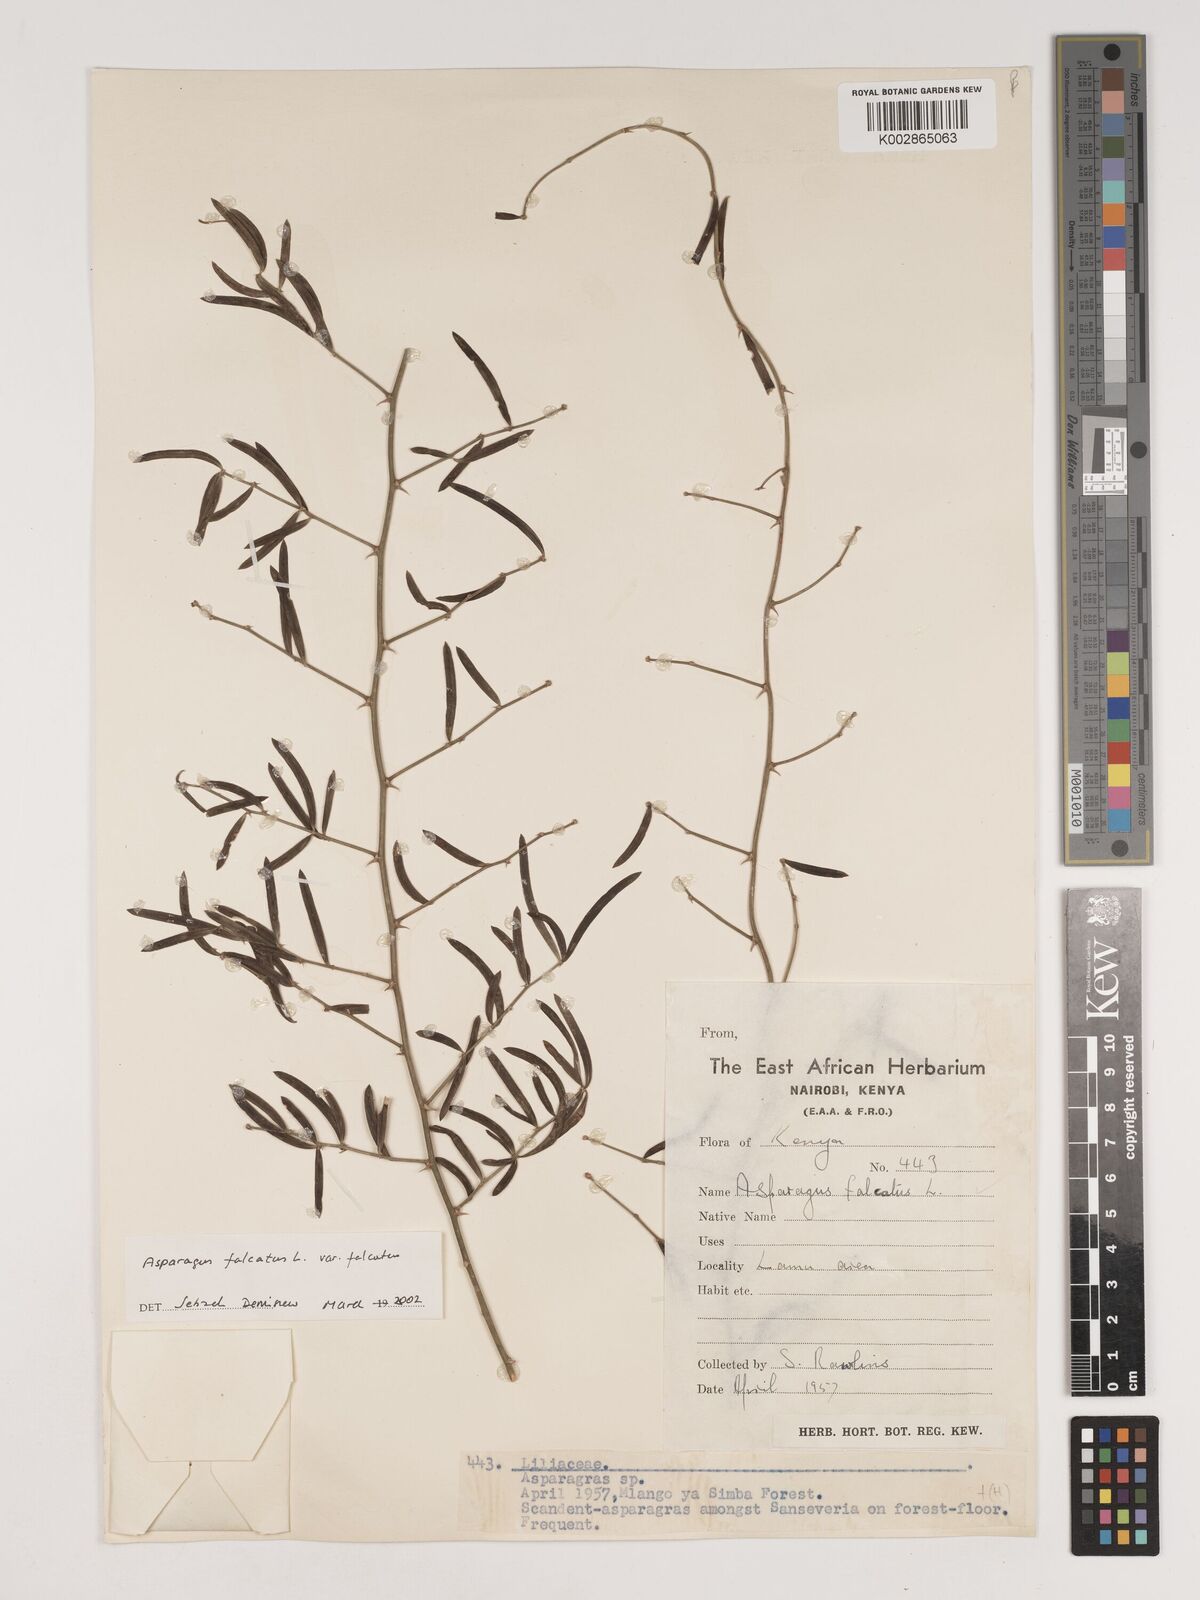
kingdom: Plantae
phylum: Tracheophyta
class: Liliopsida
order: Asparagales
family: Asparagaceae
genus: Asparagus
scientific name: Asparagus falcatus
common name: Asparagus
